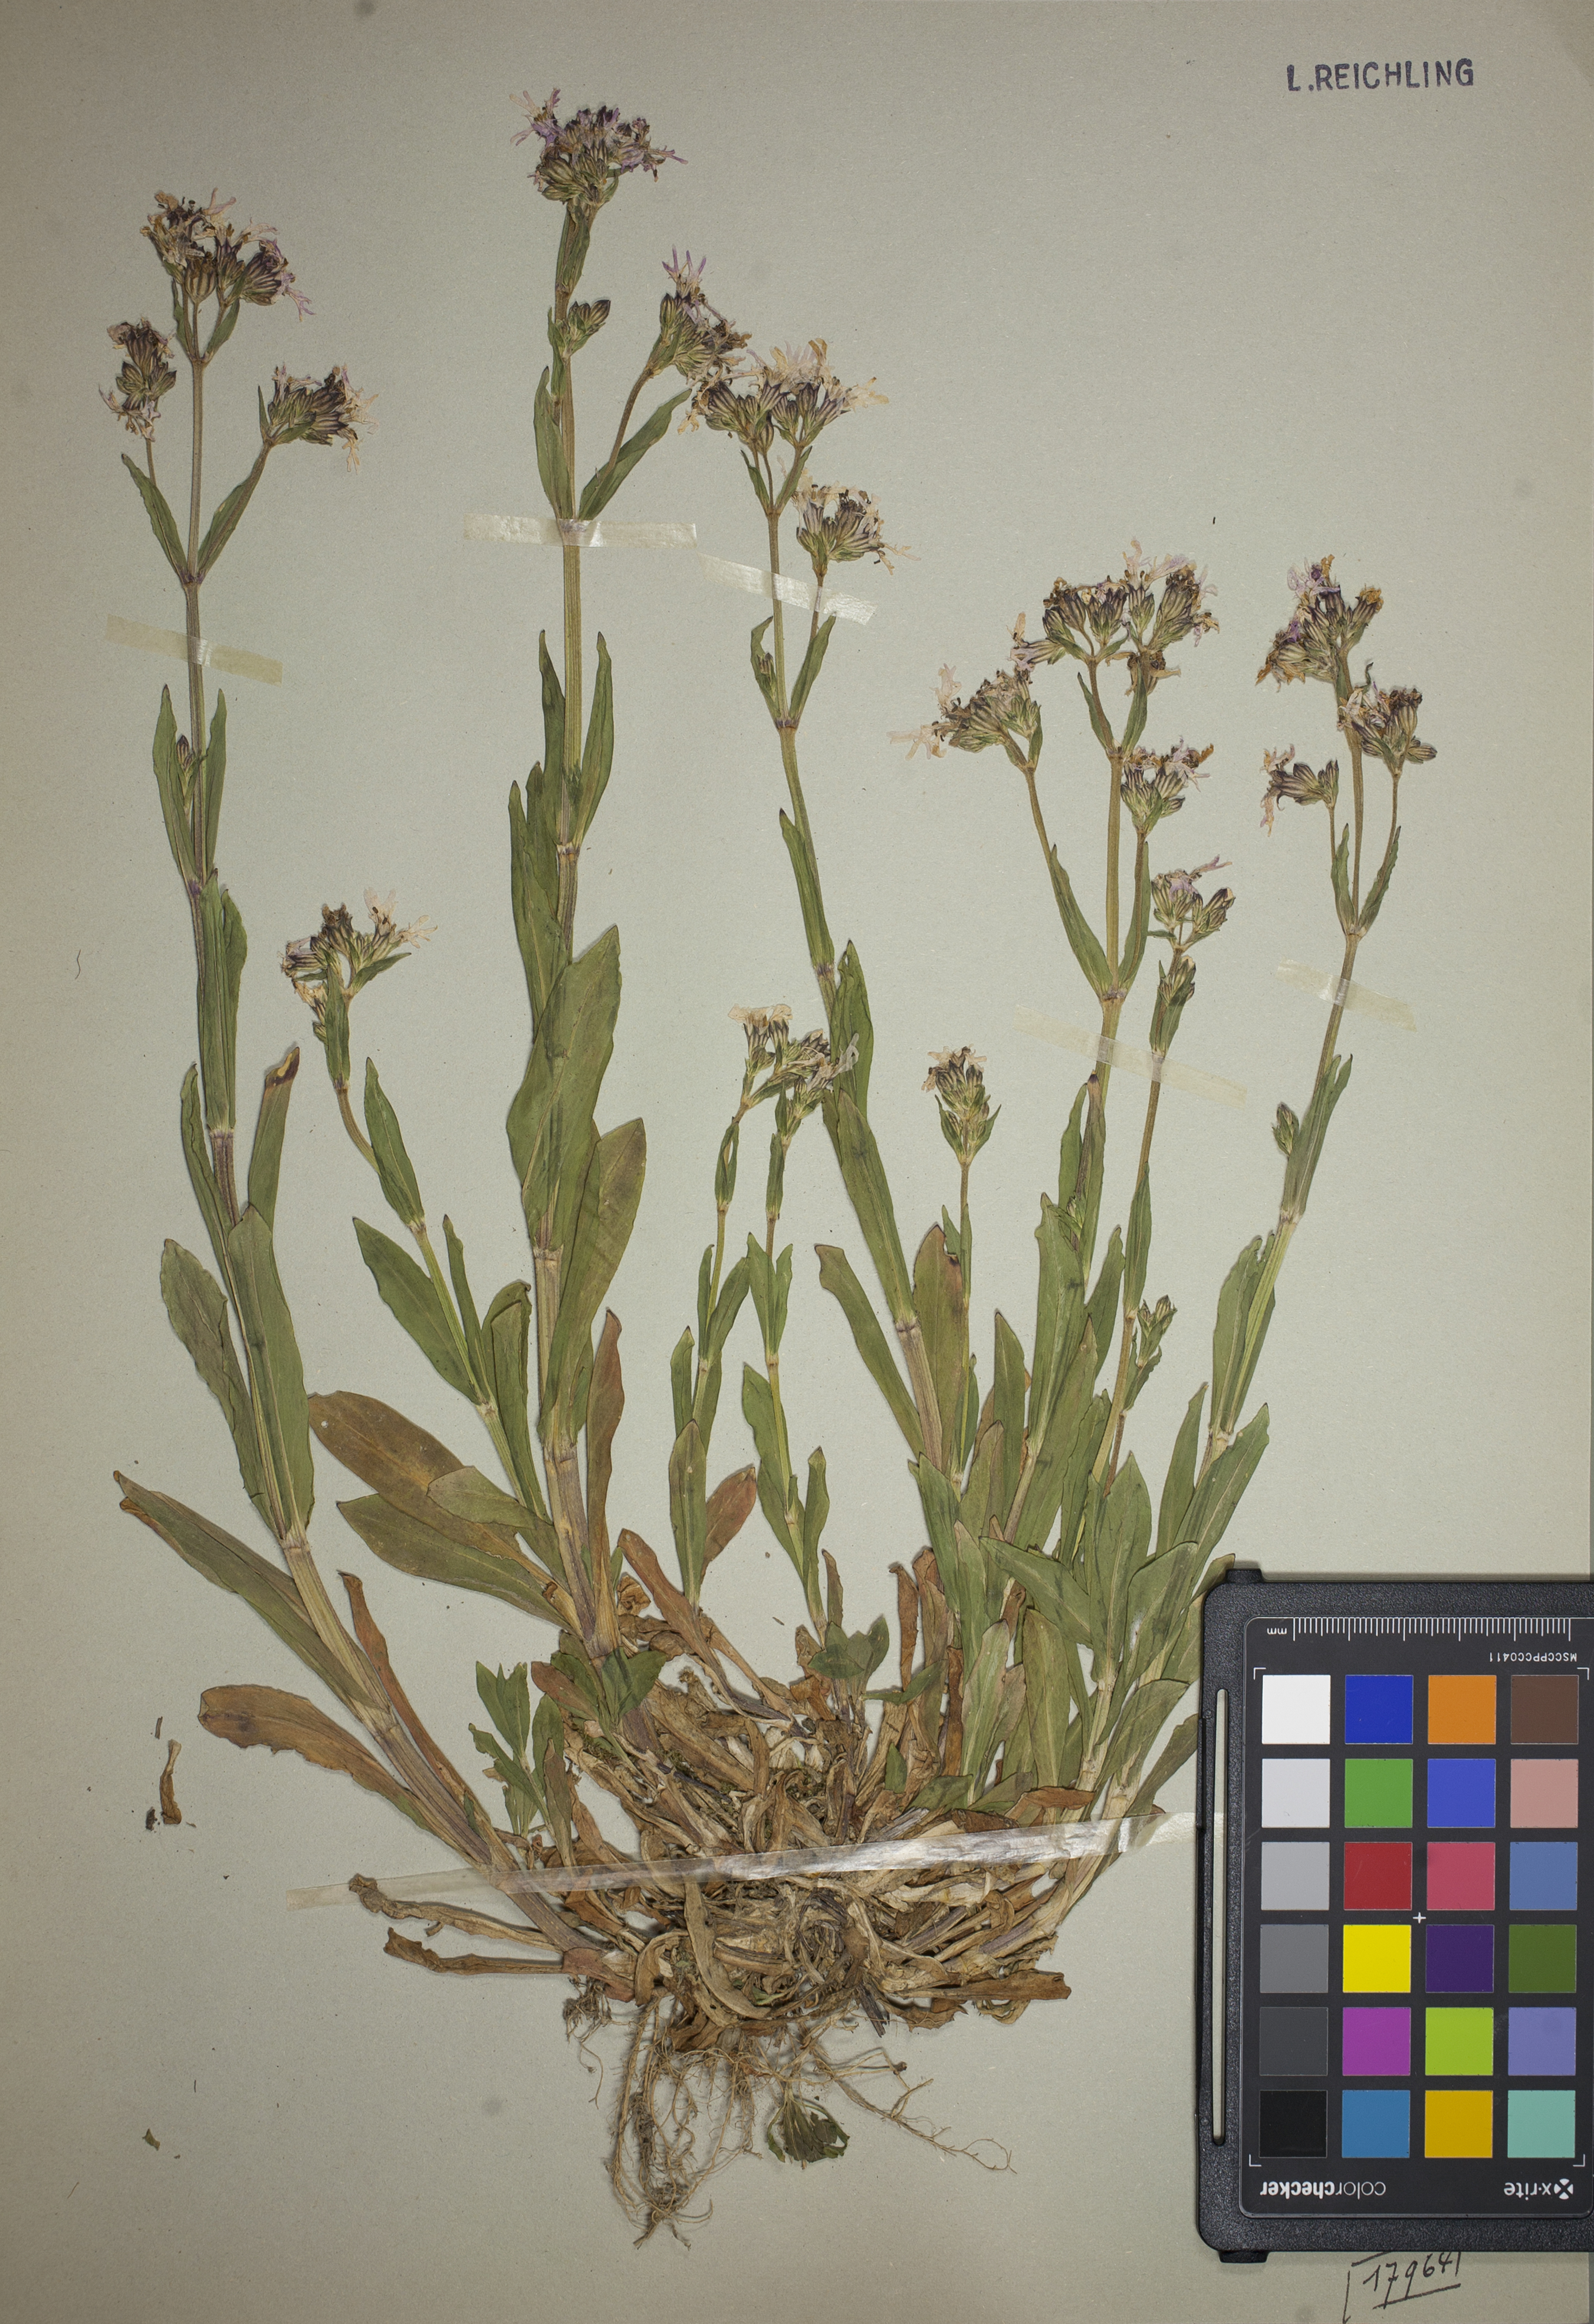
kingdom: Plantae
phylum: Tracheophyta
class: Magnoliopsida
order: Caryophyllales
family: Caryophyllaceae
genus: Silene
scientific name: Silene flos-cuculi
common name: Ragged-robin
